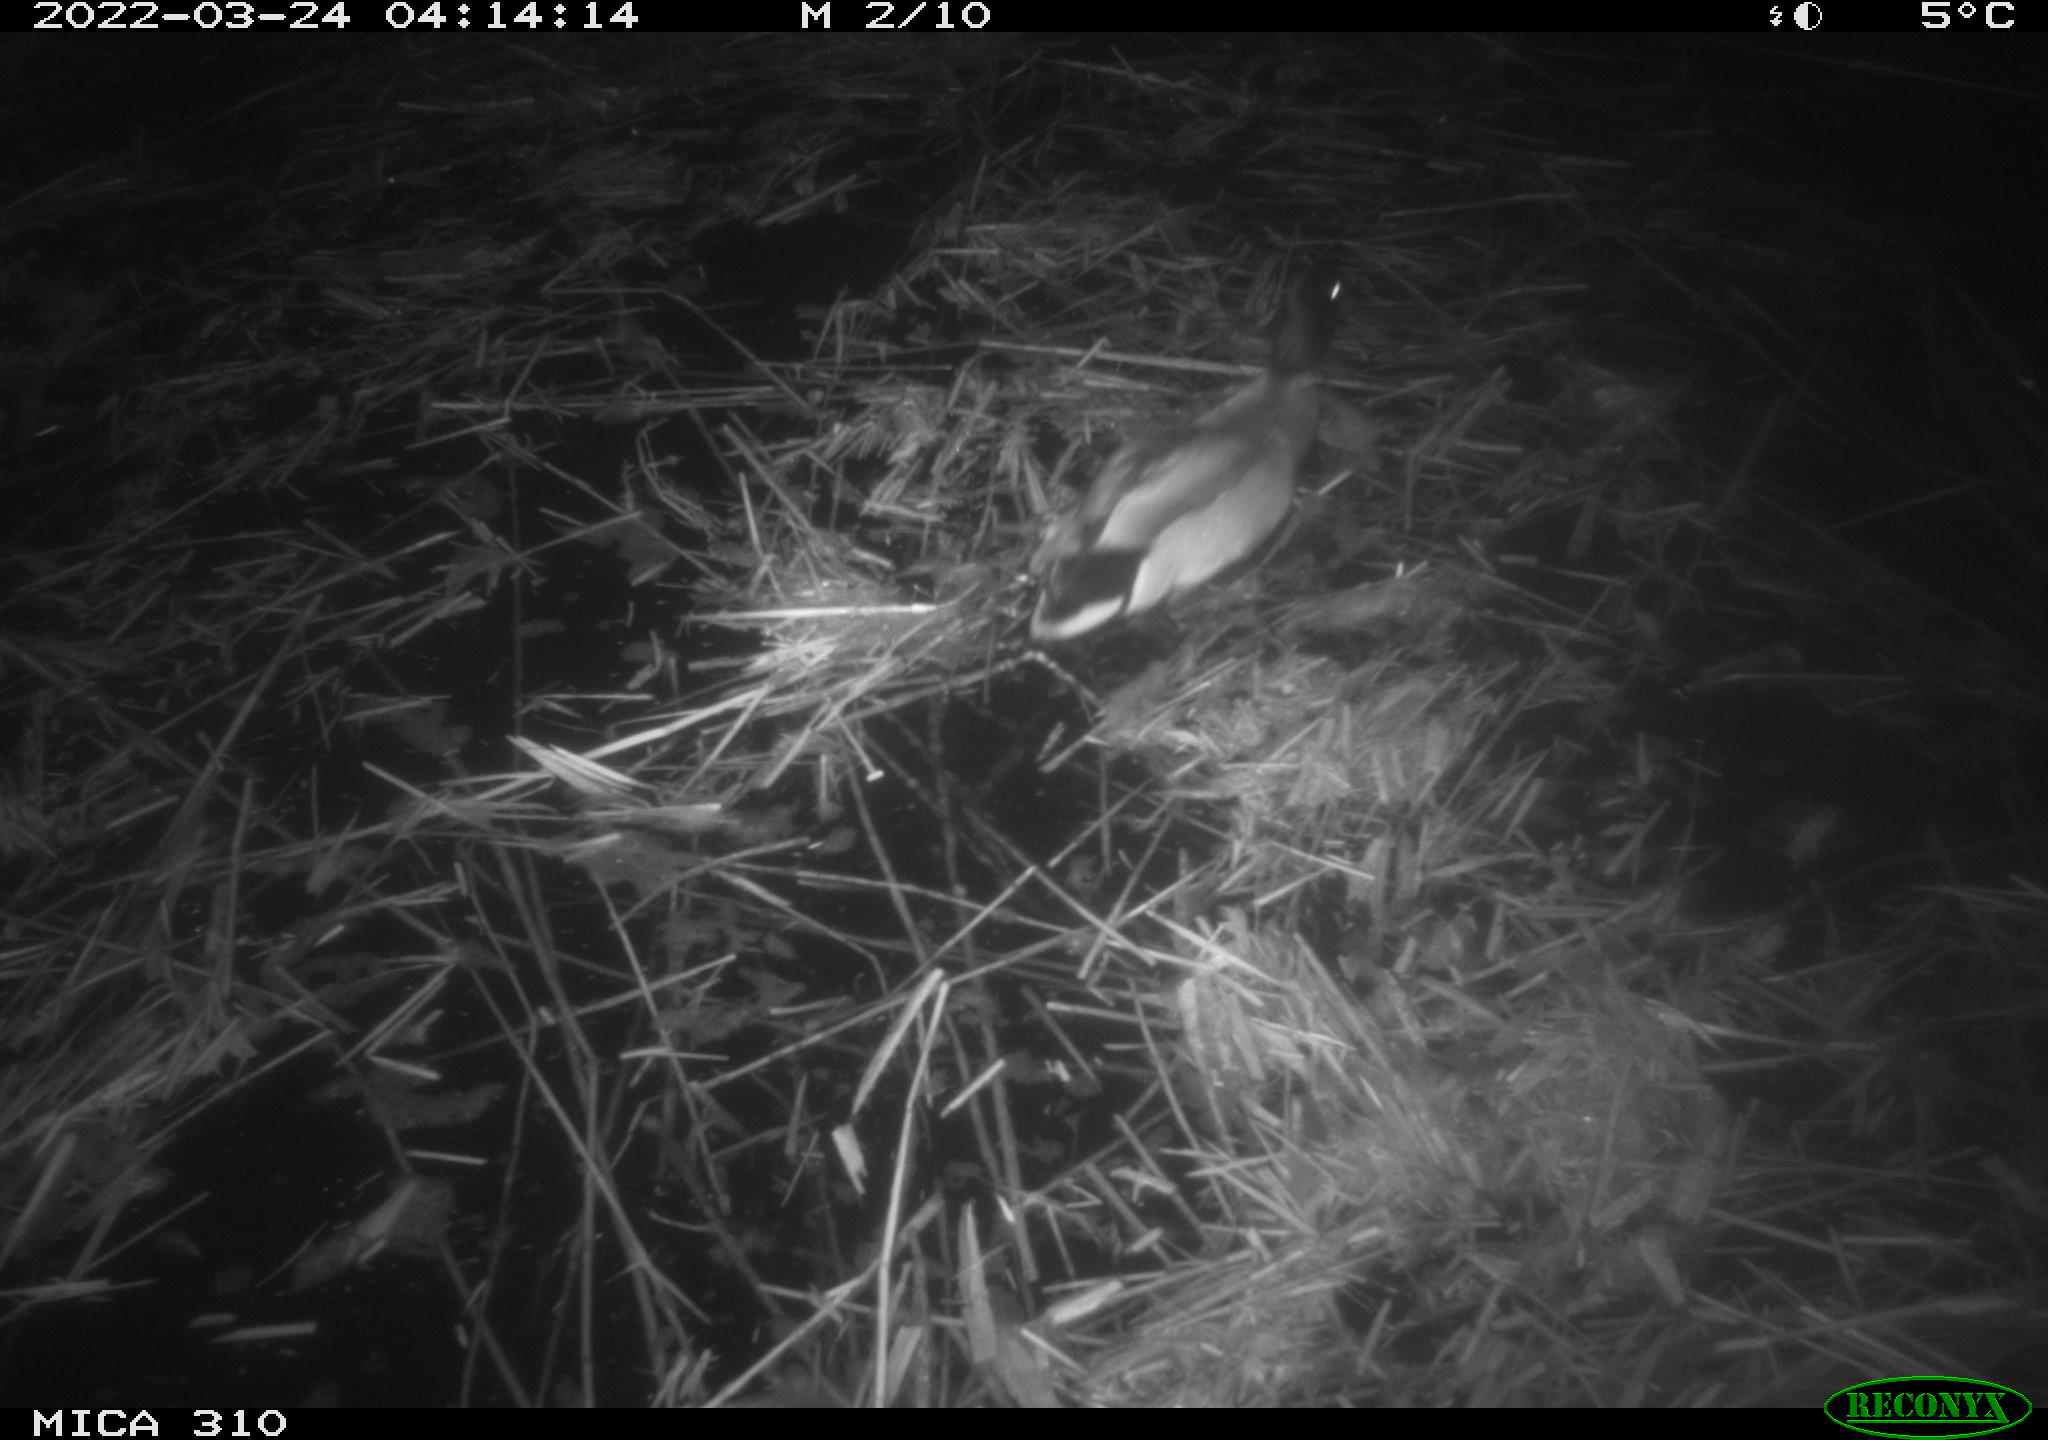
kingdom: Animalia
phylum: Chordata
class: Aves
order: Anseriformes
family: Anatidae
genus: Anas
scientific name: Anas platyrhynchos
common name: Mallard
